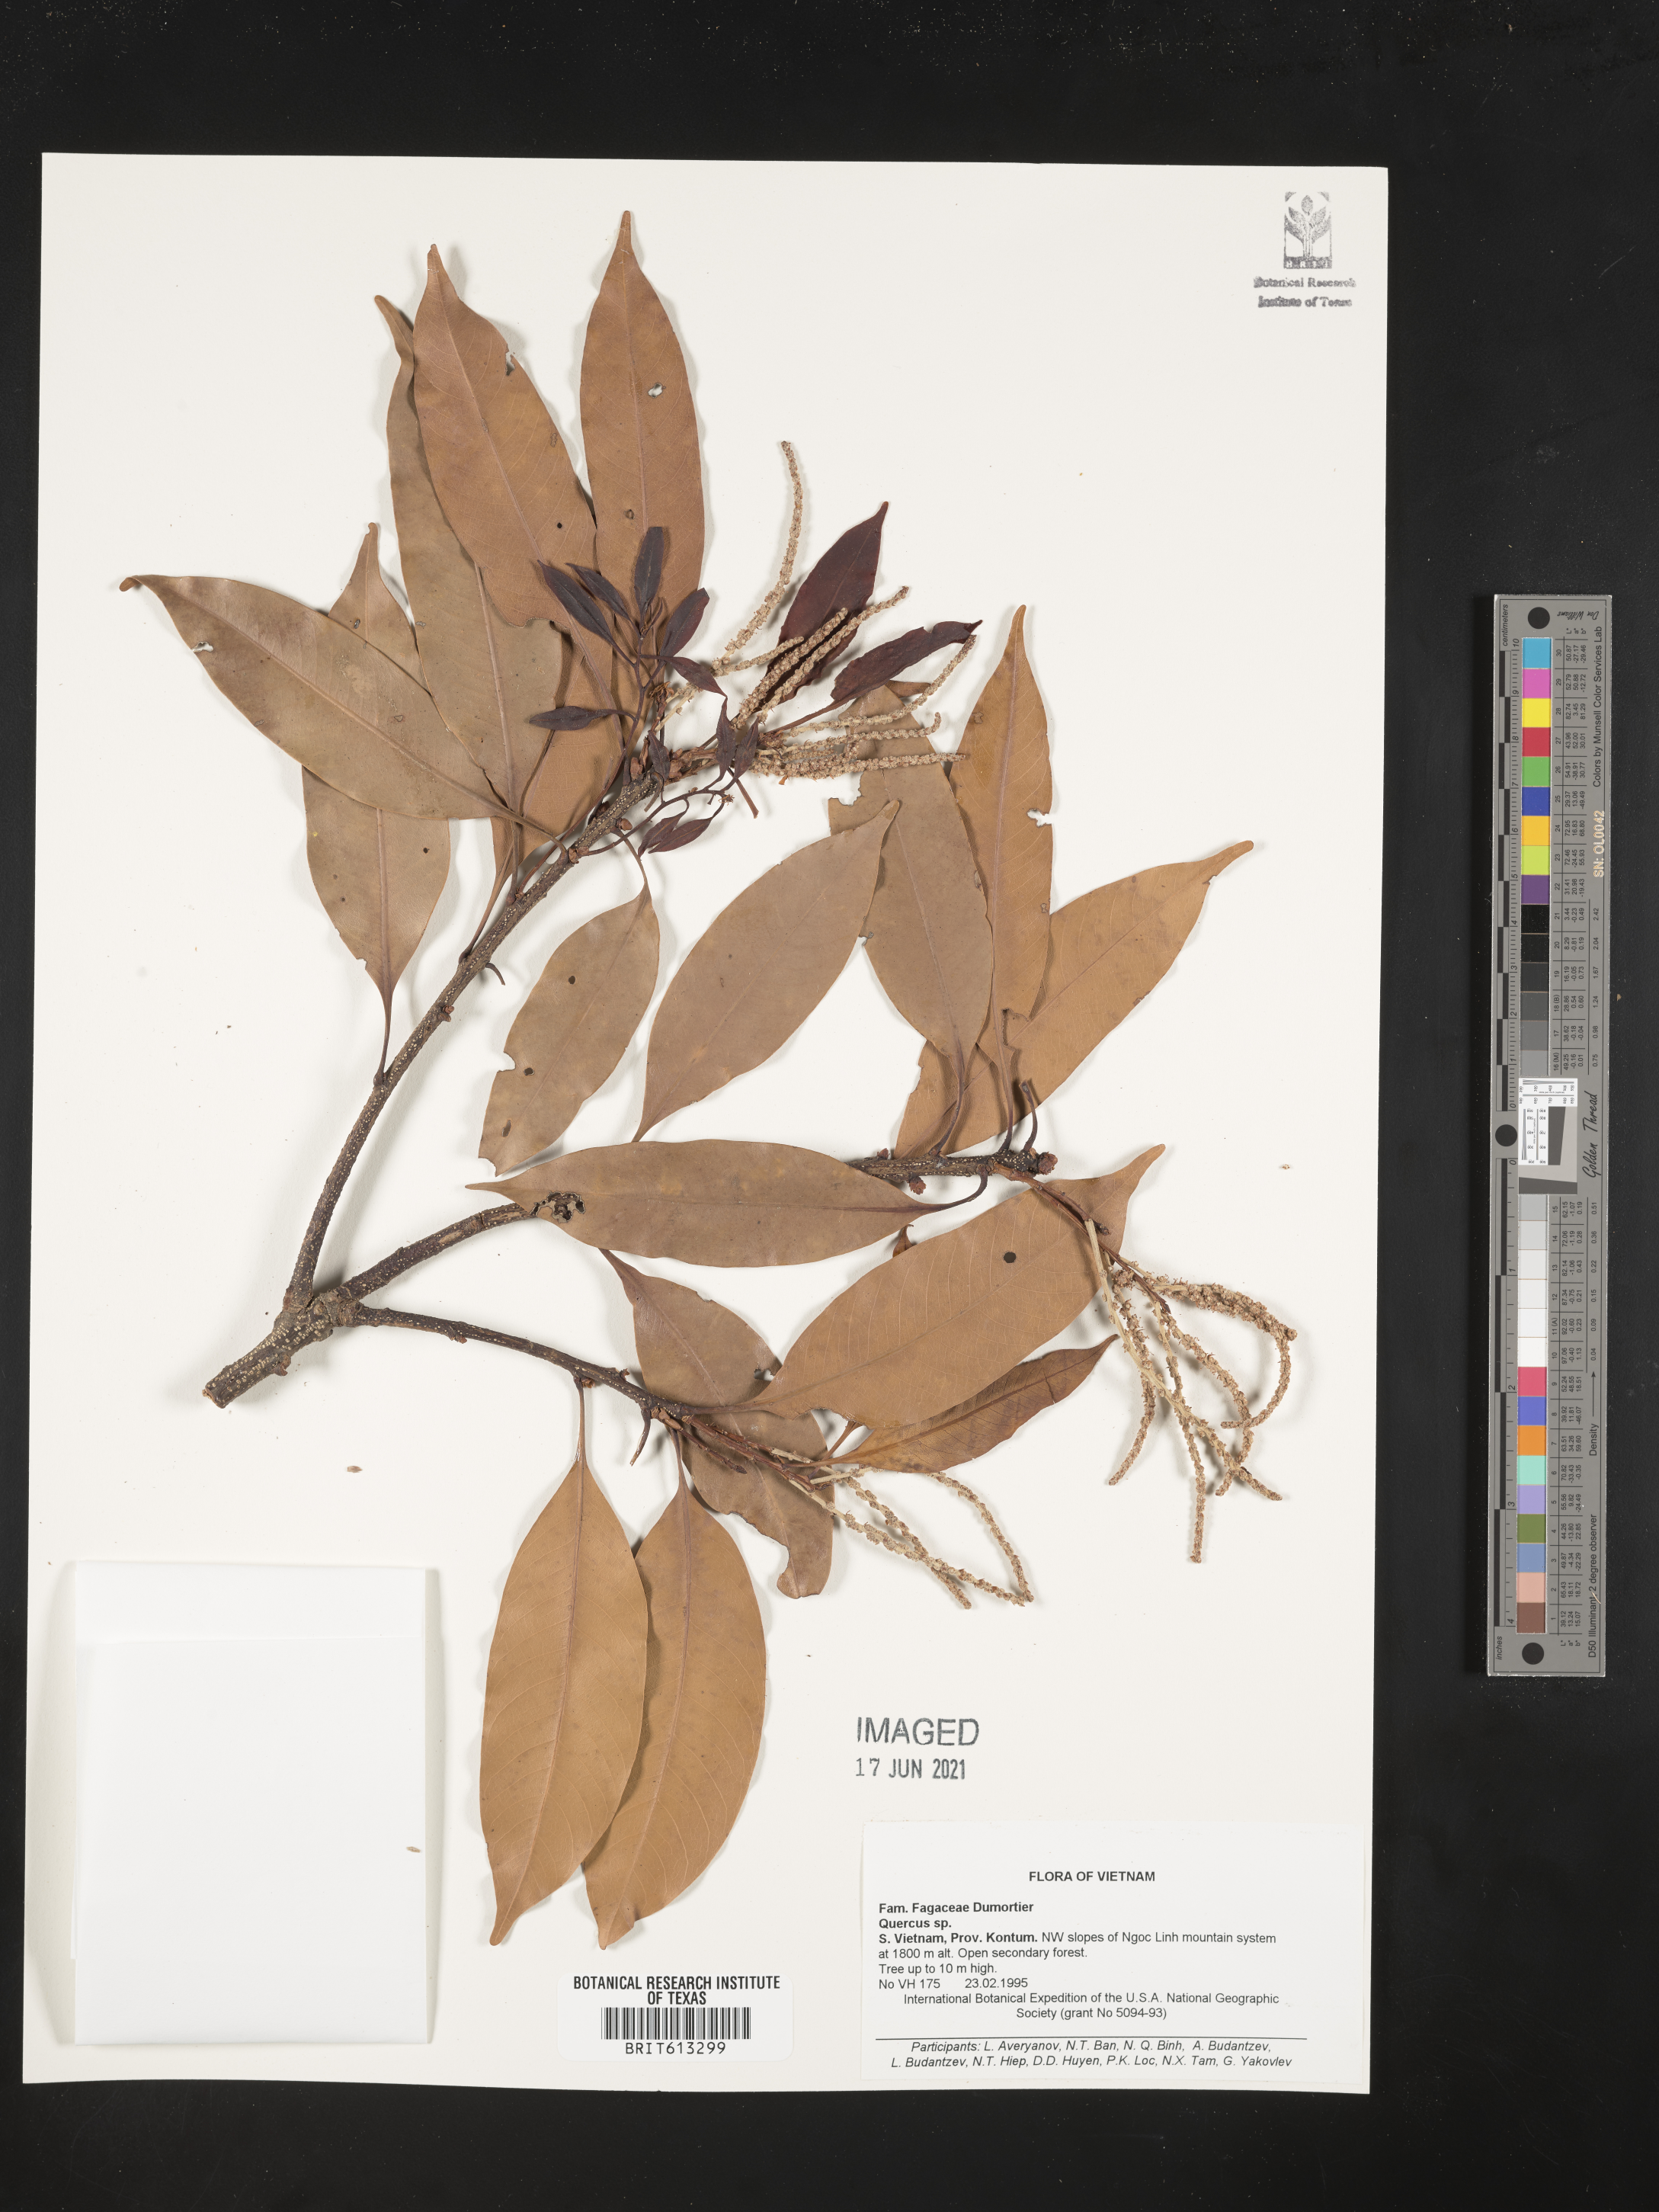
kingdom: Plantae
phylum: Tracheophyta
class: Magnoliopsida
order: Fagales
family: Fagaceae
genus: Quercus
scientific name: Quercus
